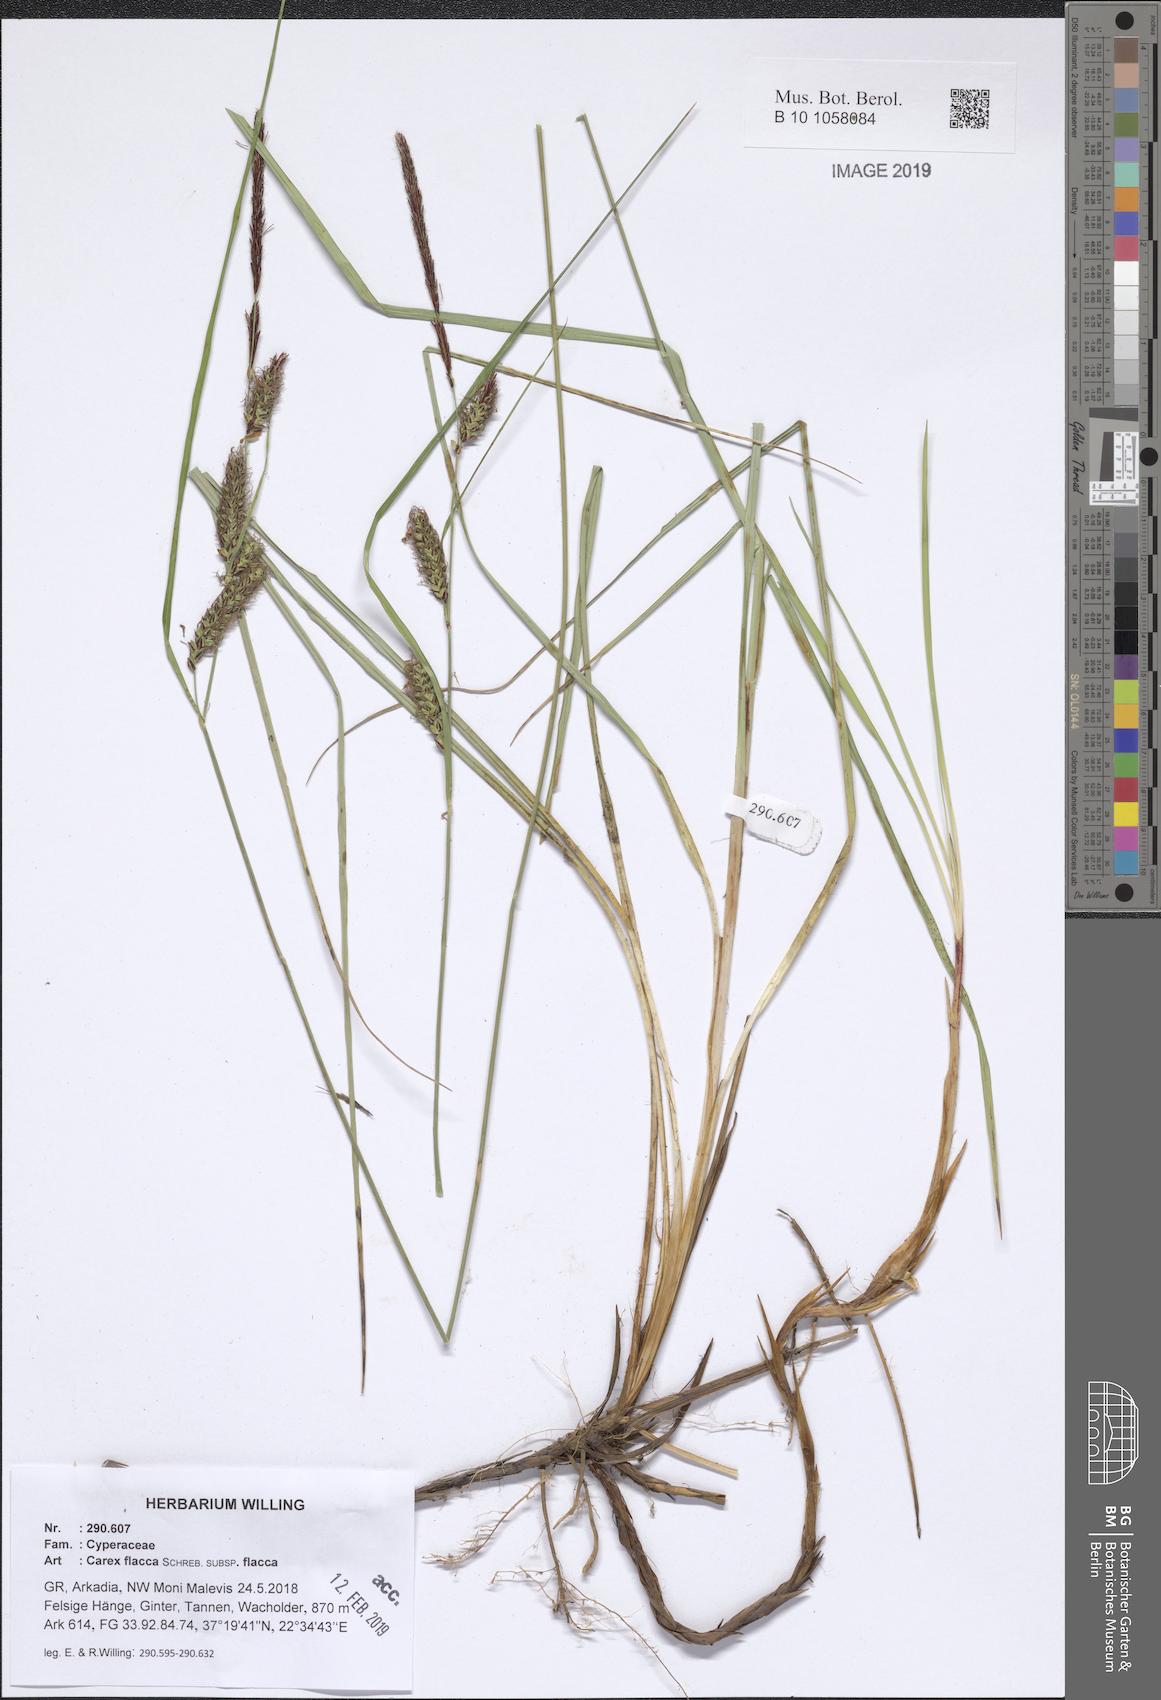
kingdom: Plantae
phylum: Tracheophyta
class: Liliopsida
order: Poales
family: Cyperaceae
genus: Carex
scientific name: Carex flacca
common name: Glaucous sedge
